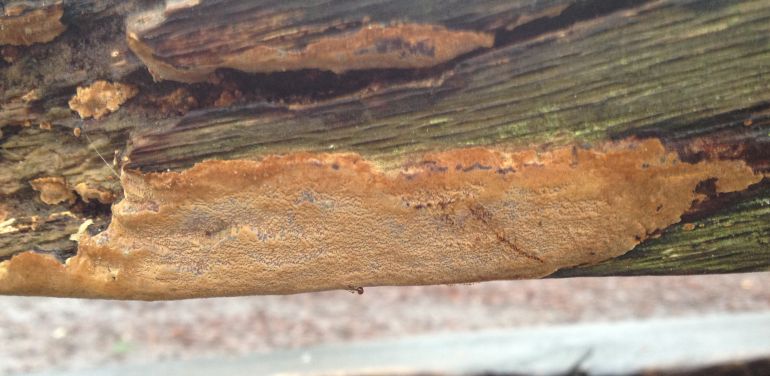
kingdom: Fungi
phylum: Basidiomycota
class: Agaricomycetes
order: Hymenochaetales
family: Hymenochaetaceae
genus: Fuscoporia
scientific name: Fuscoporia ferrea
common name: skorpe-ildporesvamp
